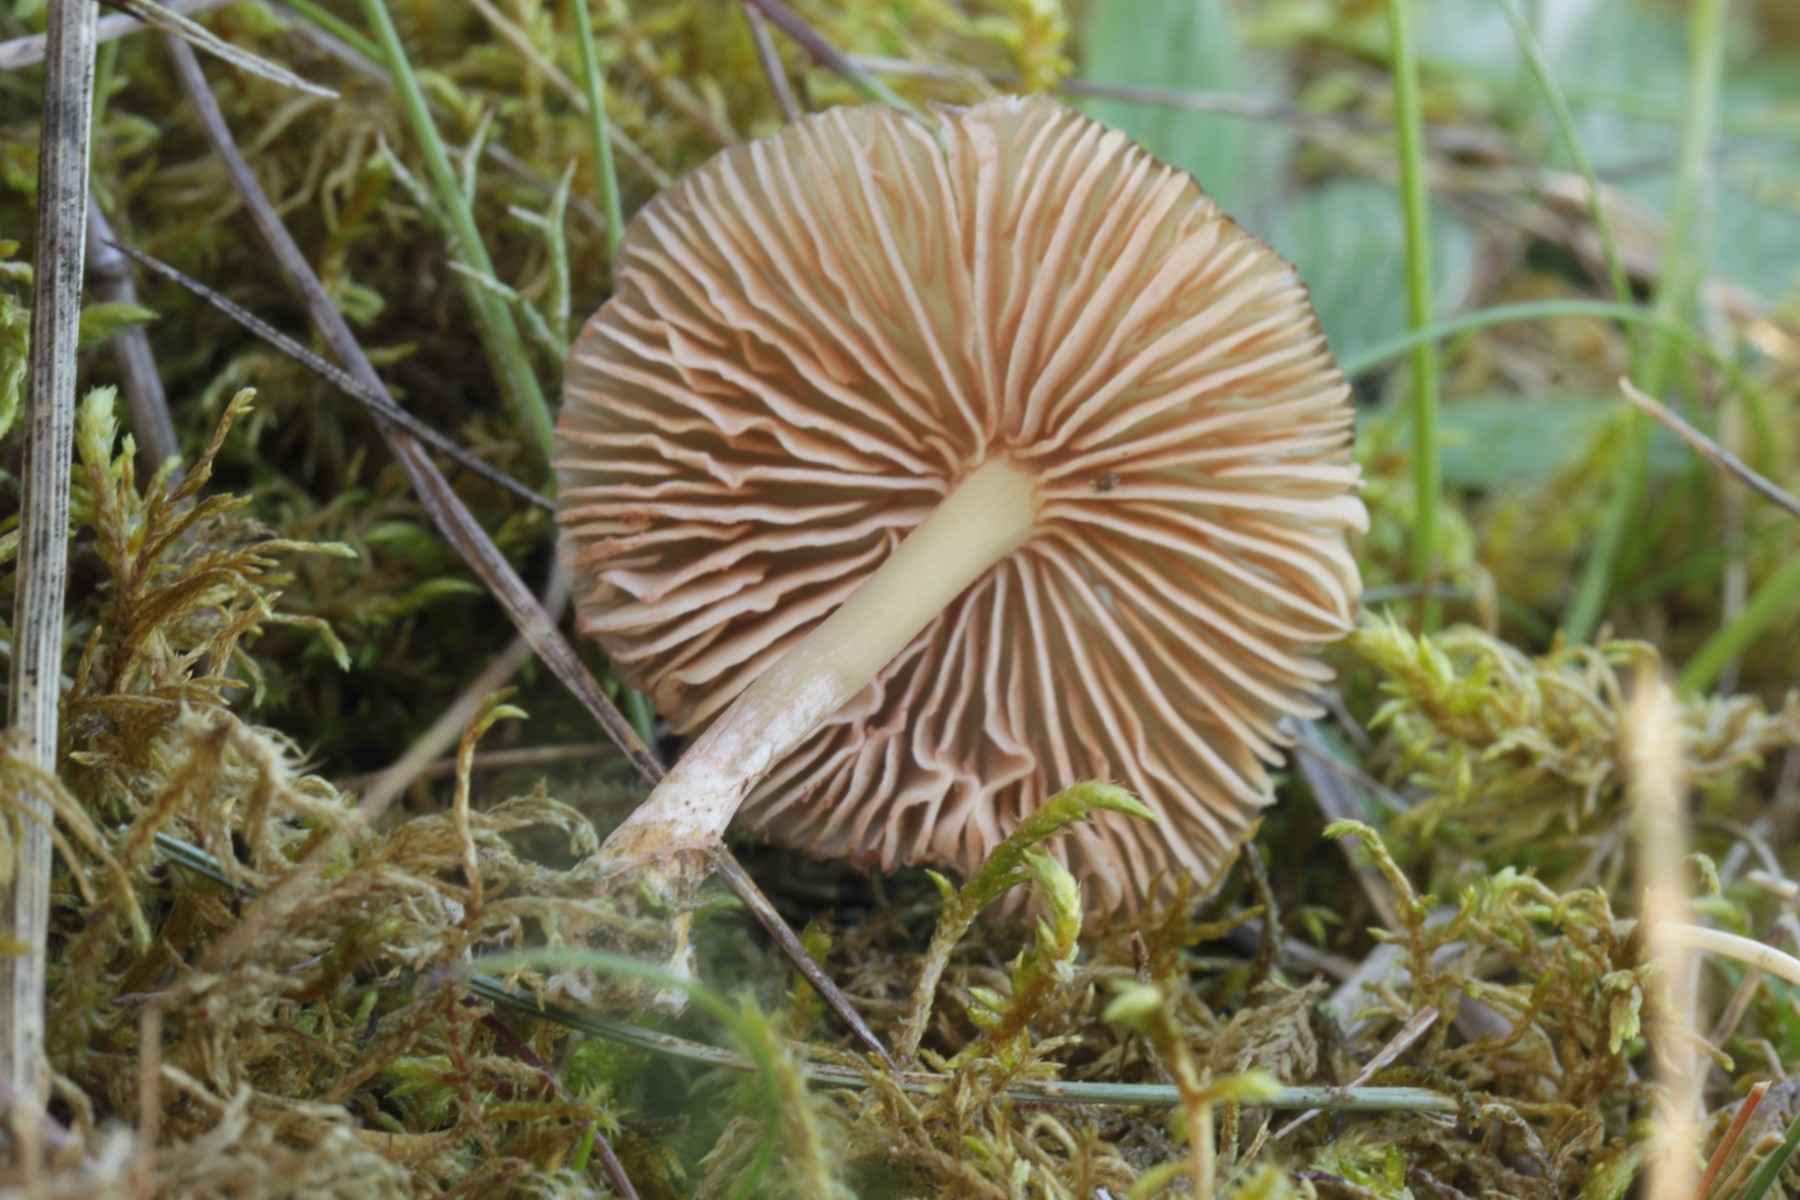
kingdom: Fungi
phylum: Basidiomycota
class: Agaricomycetes
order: Agaricales
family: Entolomataceae
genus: Entoloma
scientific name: Entoloma
